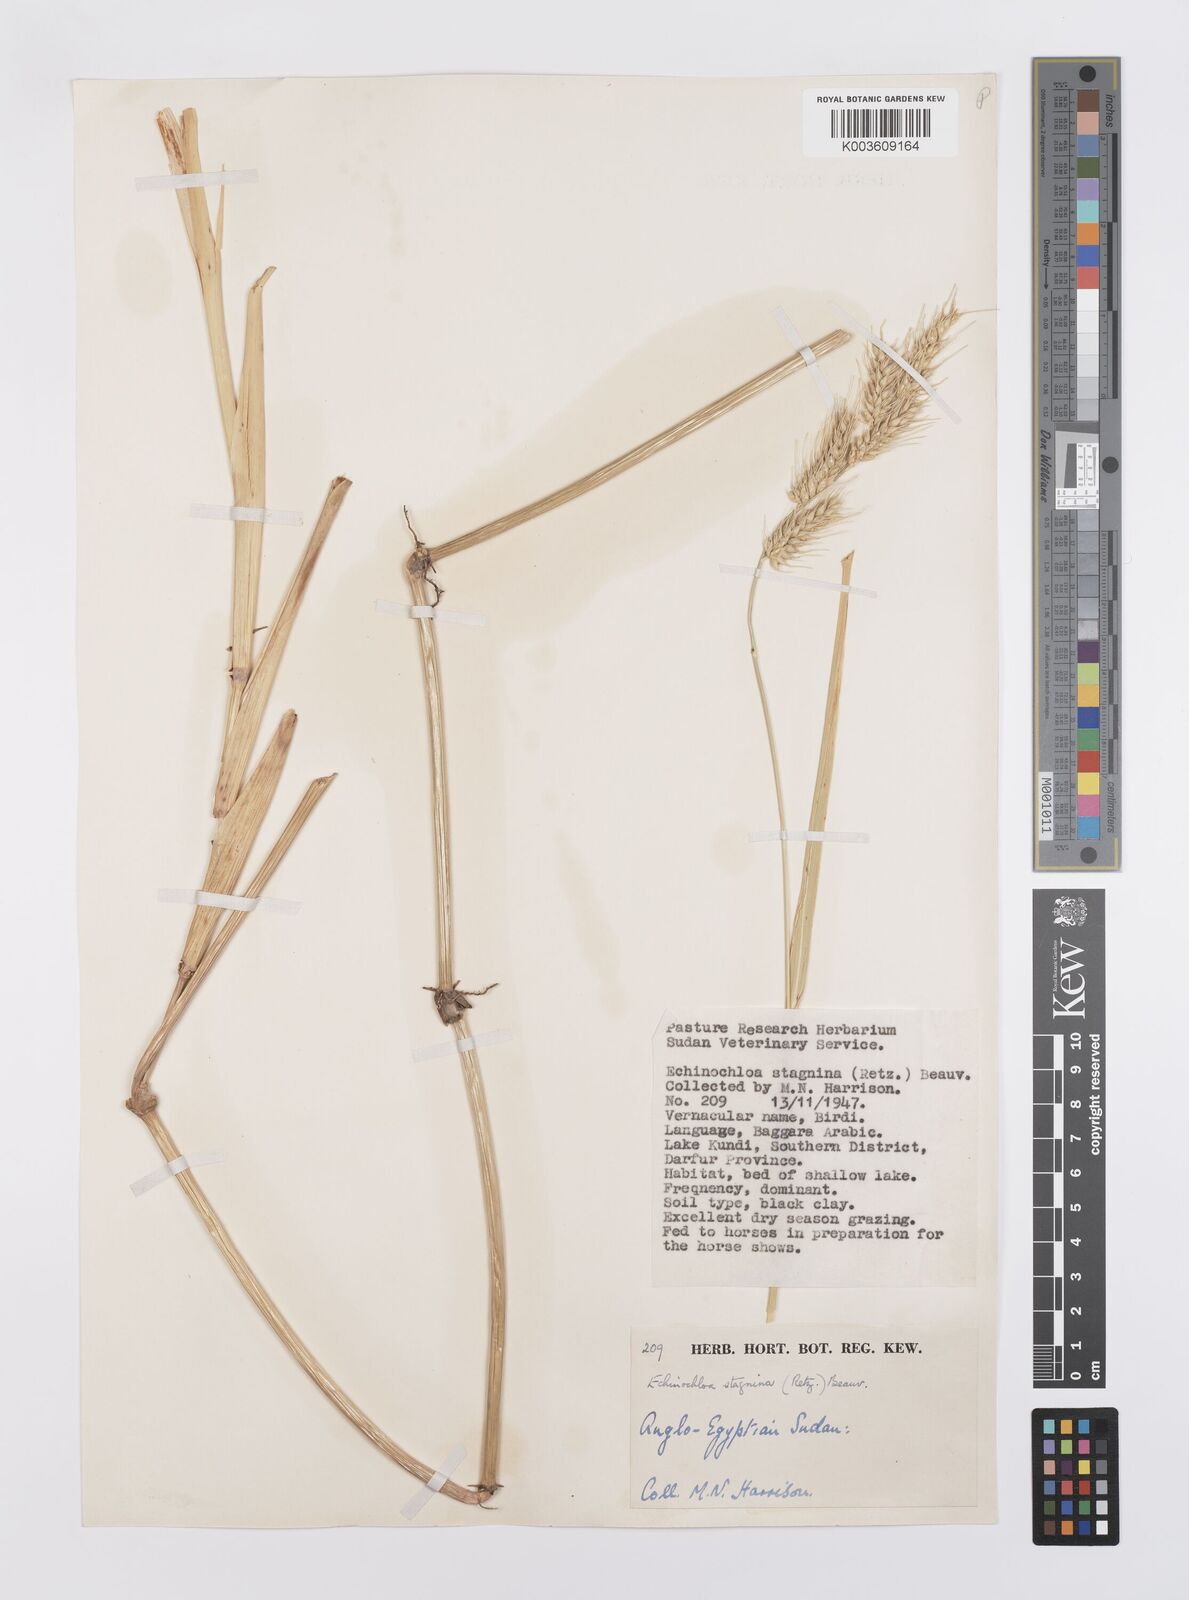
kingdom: Plantae
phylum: Tracheophyta
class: Liliopsida
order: Poales
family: Poaceae
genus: Echinochloa
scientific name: Echinochloa stagnina
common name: Burgu grass
